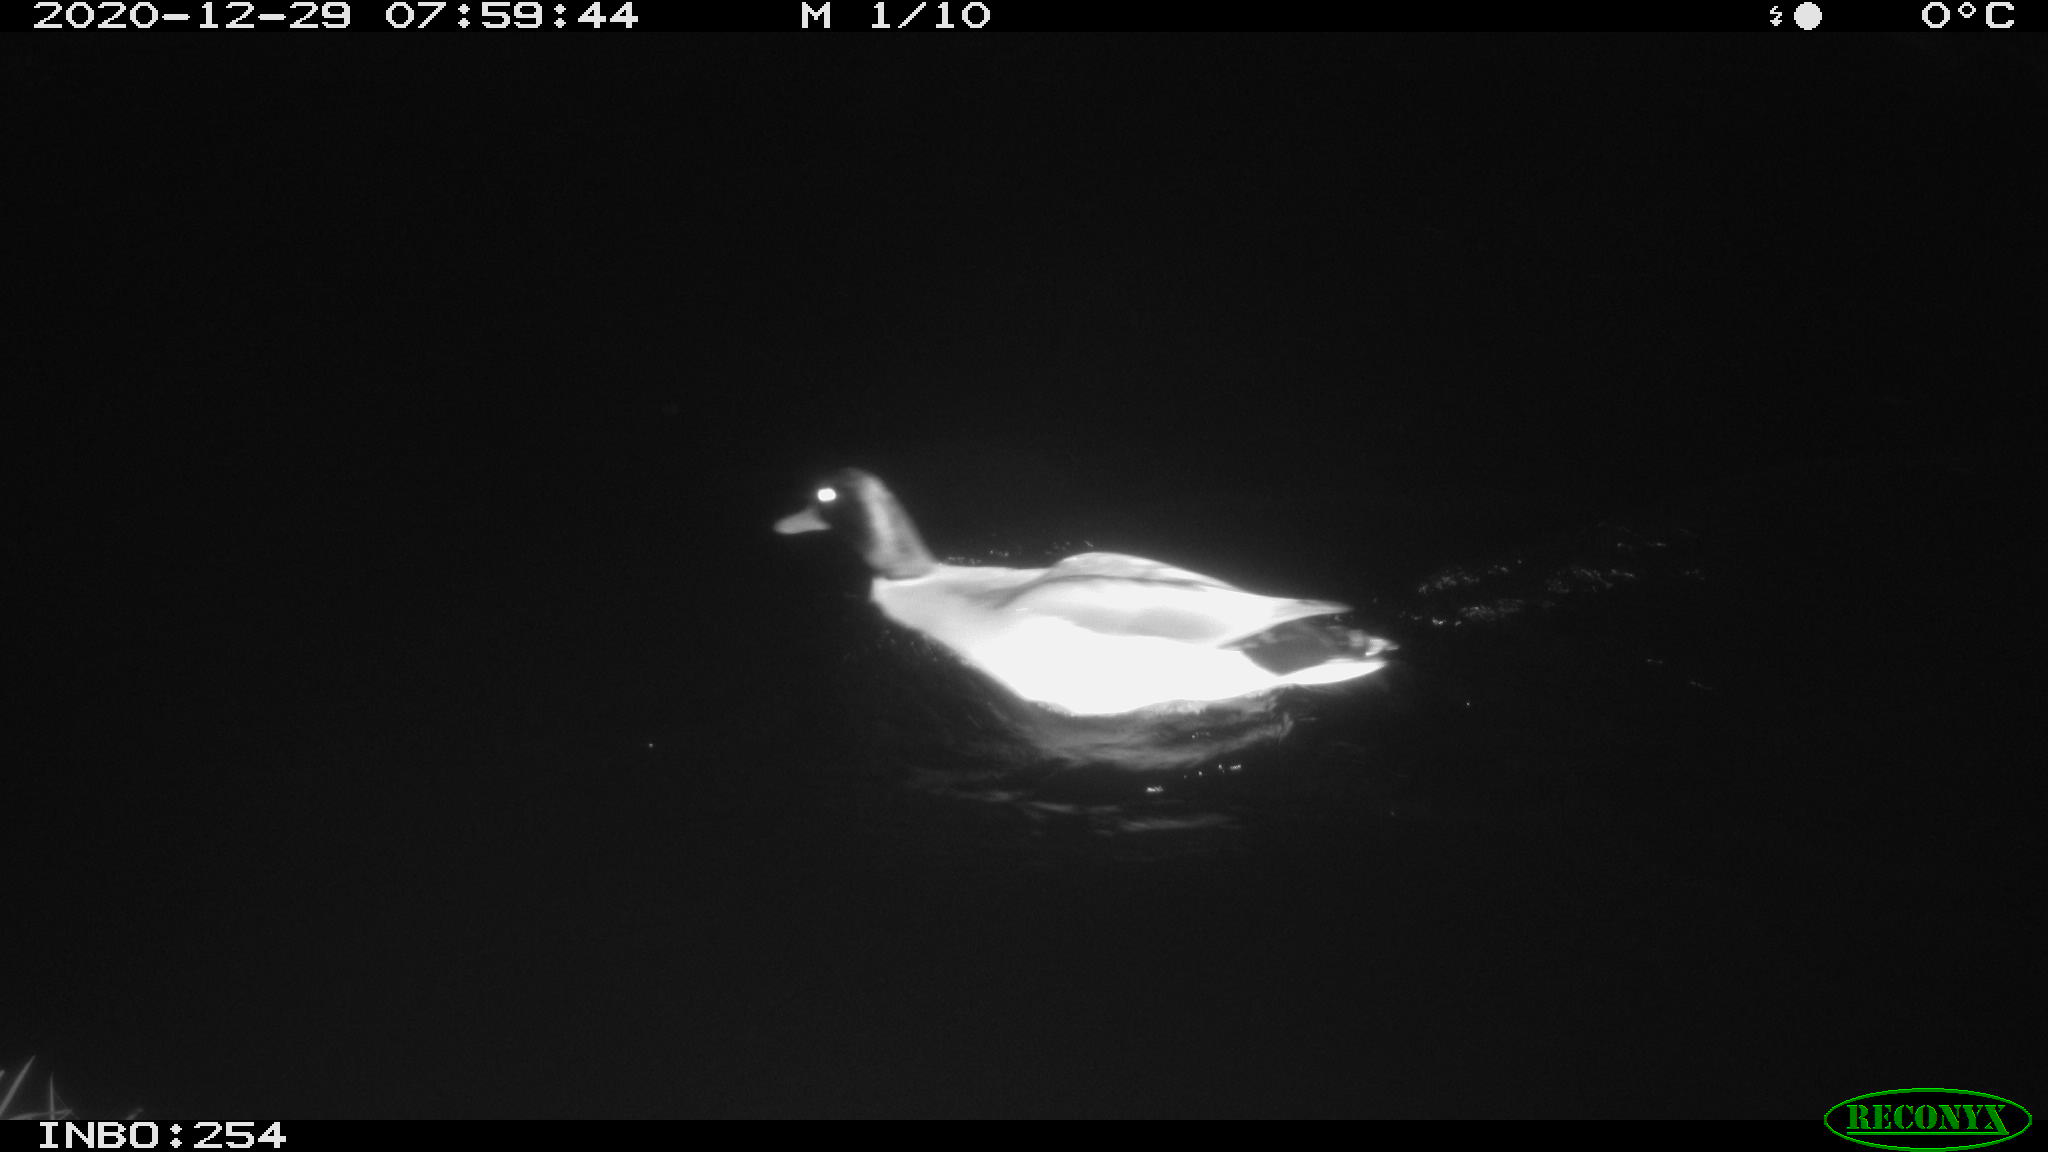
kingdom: Animalia
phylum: Chordata
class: Aves
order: Anseriformes
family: Anatidae
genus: Anas
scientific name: Anas platyrhynchos
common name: Mallard
